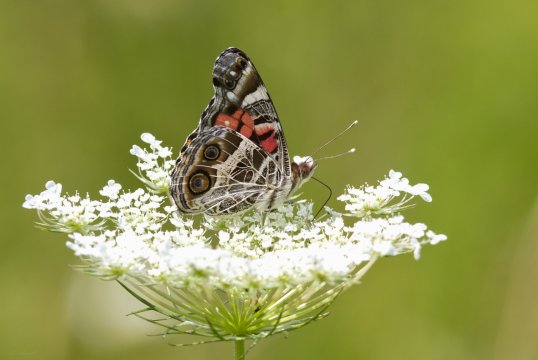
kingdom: Animalia
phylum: Arthropoda
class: Insecta
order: Lepidoptera
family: Nymphalidae
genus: Vanessa
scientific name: Vanessa cardui
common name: Painted Lady
